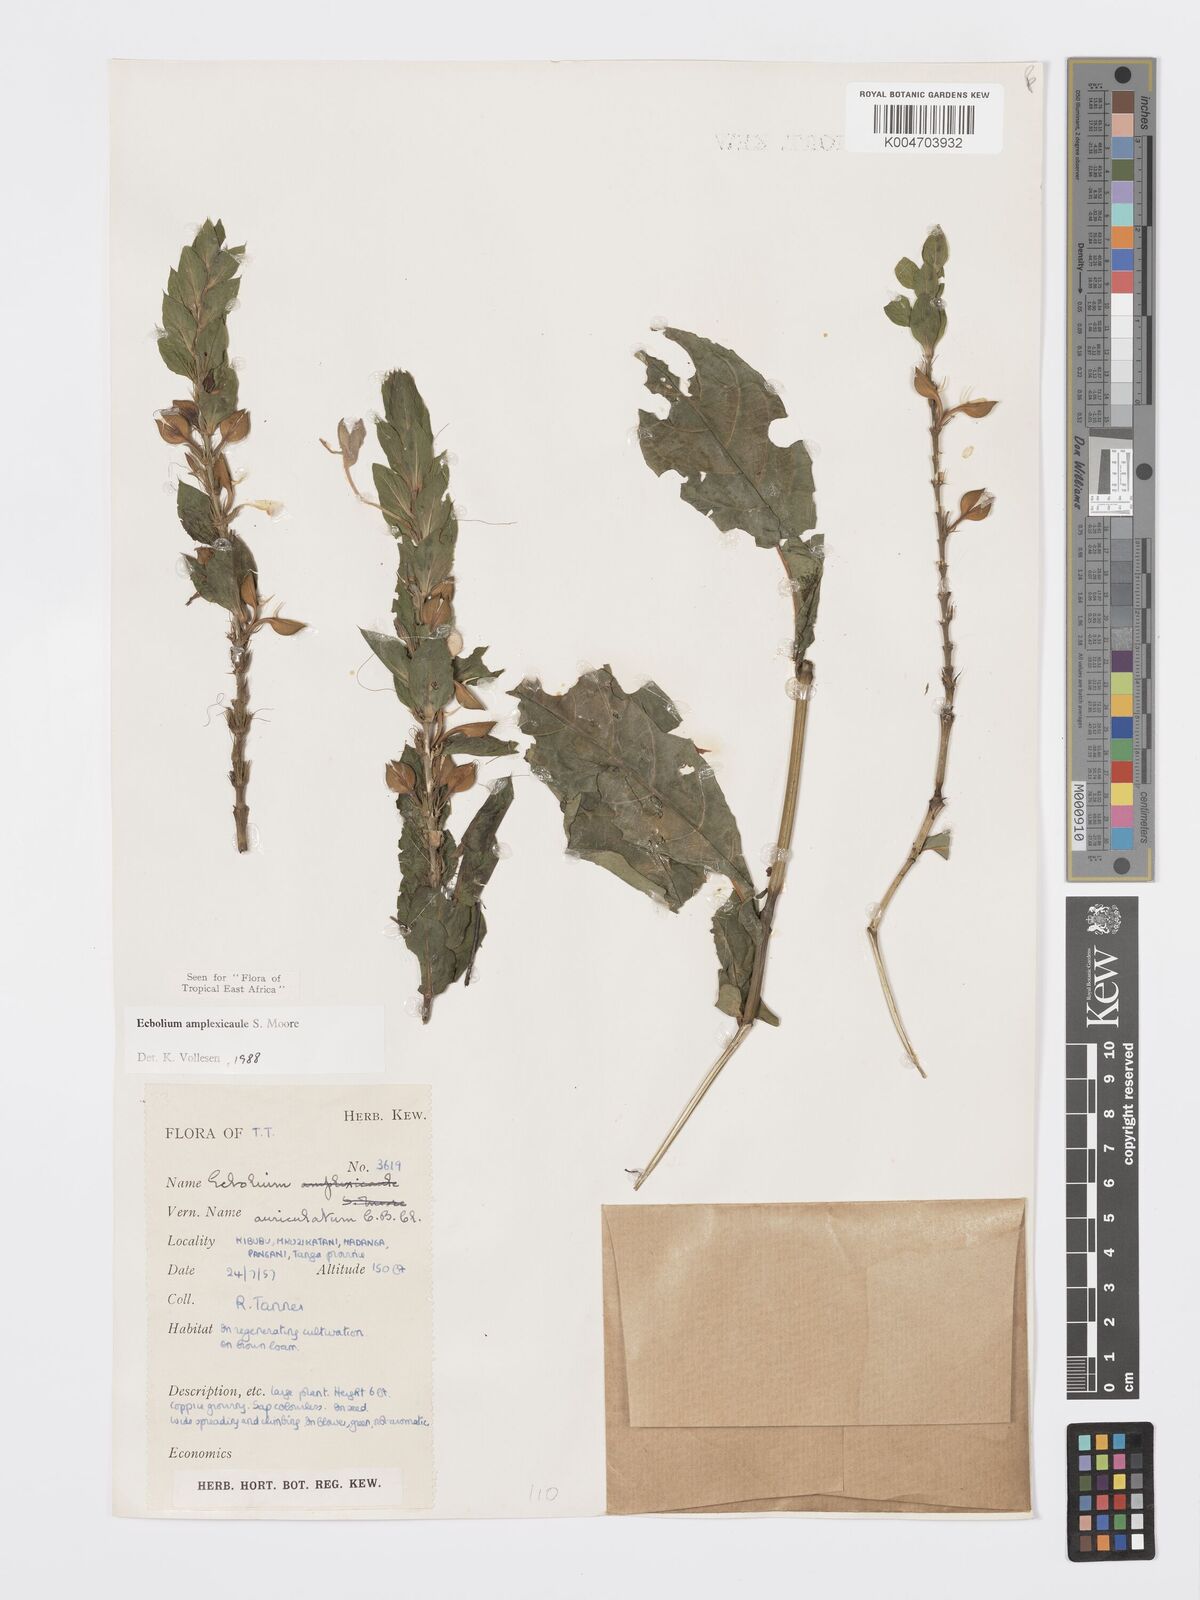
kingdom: Plantae
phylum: Tracheophyta
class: Magnoliopsida
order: Lamiales
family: Acanthaceae
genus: Ecbolium
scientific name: Ecbolium amplexicaule
